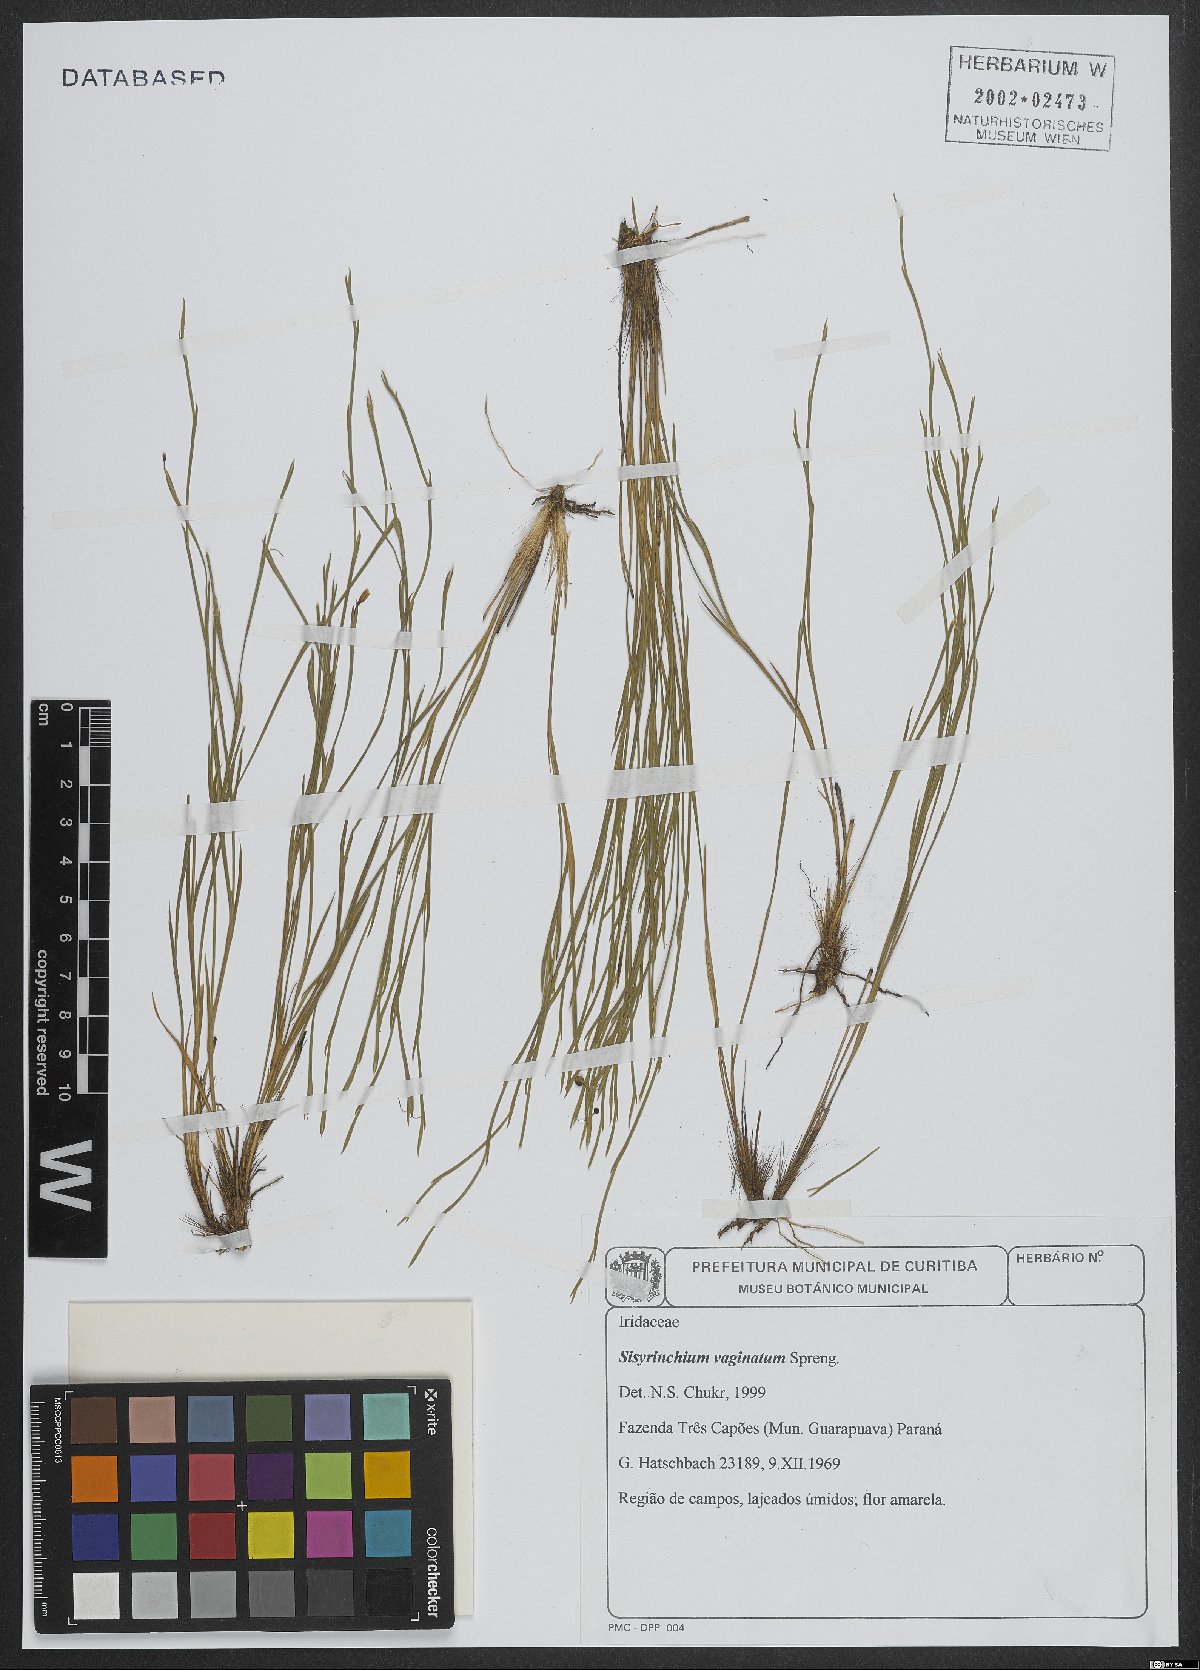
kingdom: Plantae
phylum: Tracheophyta
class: Liliopsida
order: Asparagales
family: Iridaceae
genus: Sisyrinchium
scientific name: Sisyrinchium vaginatum
